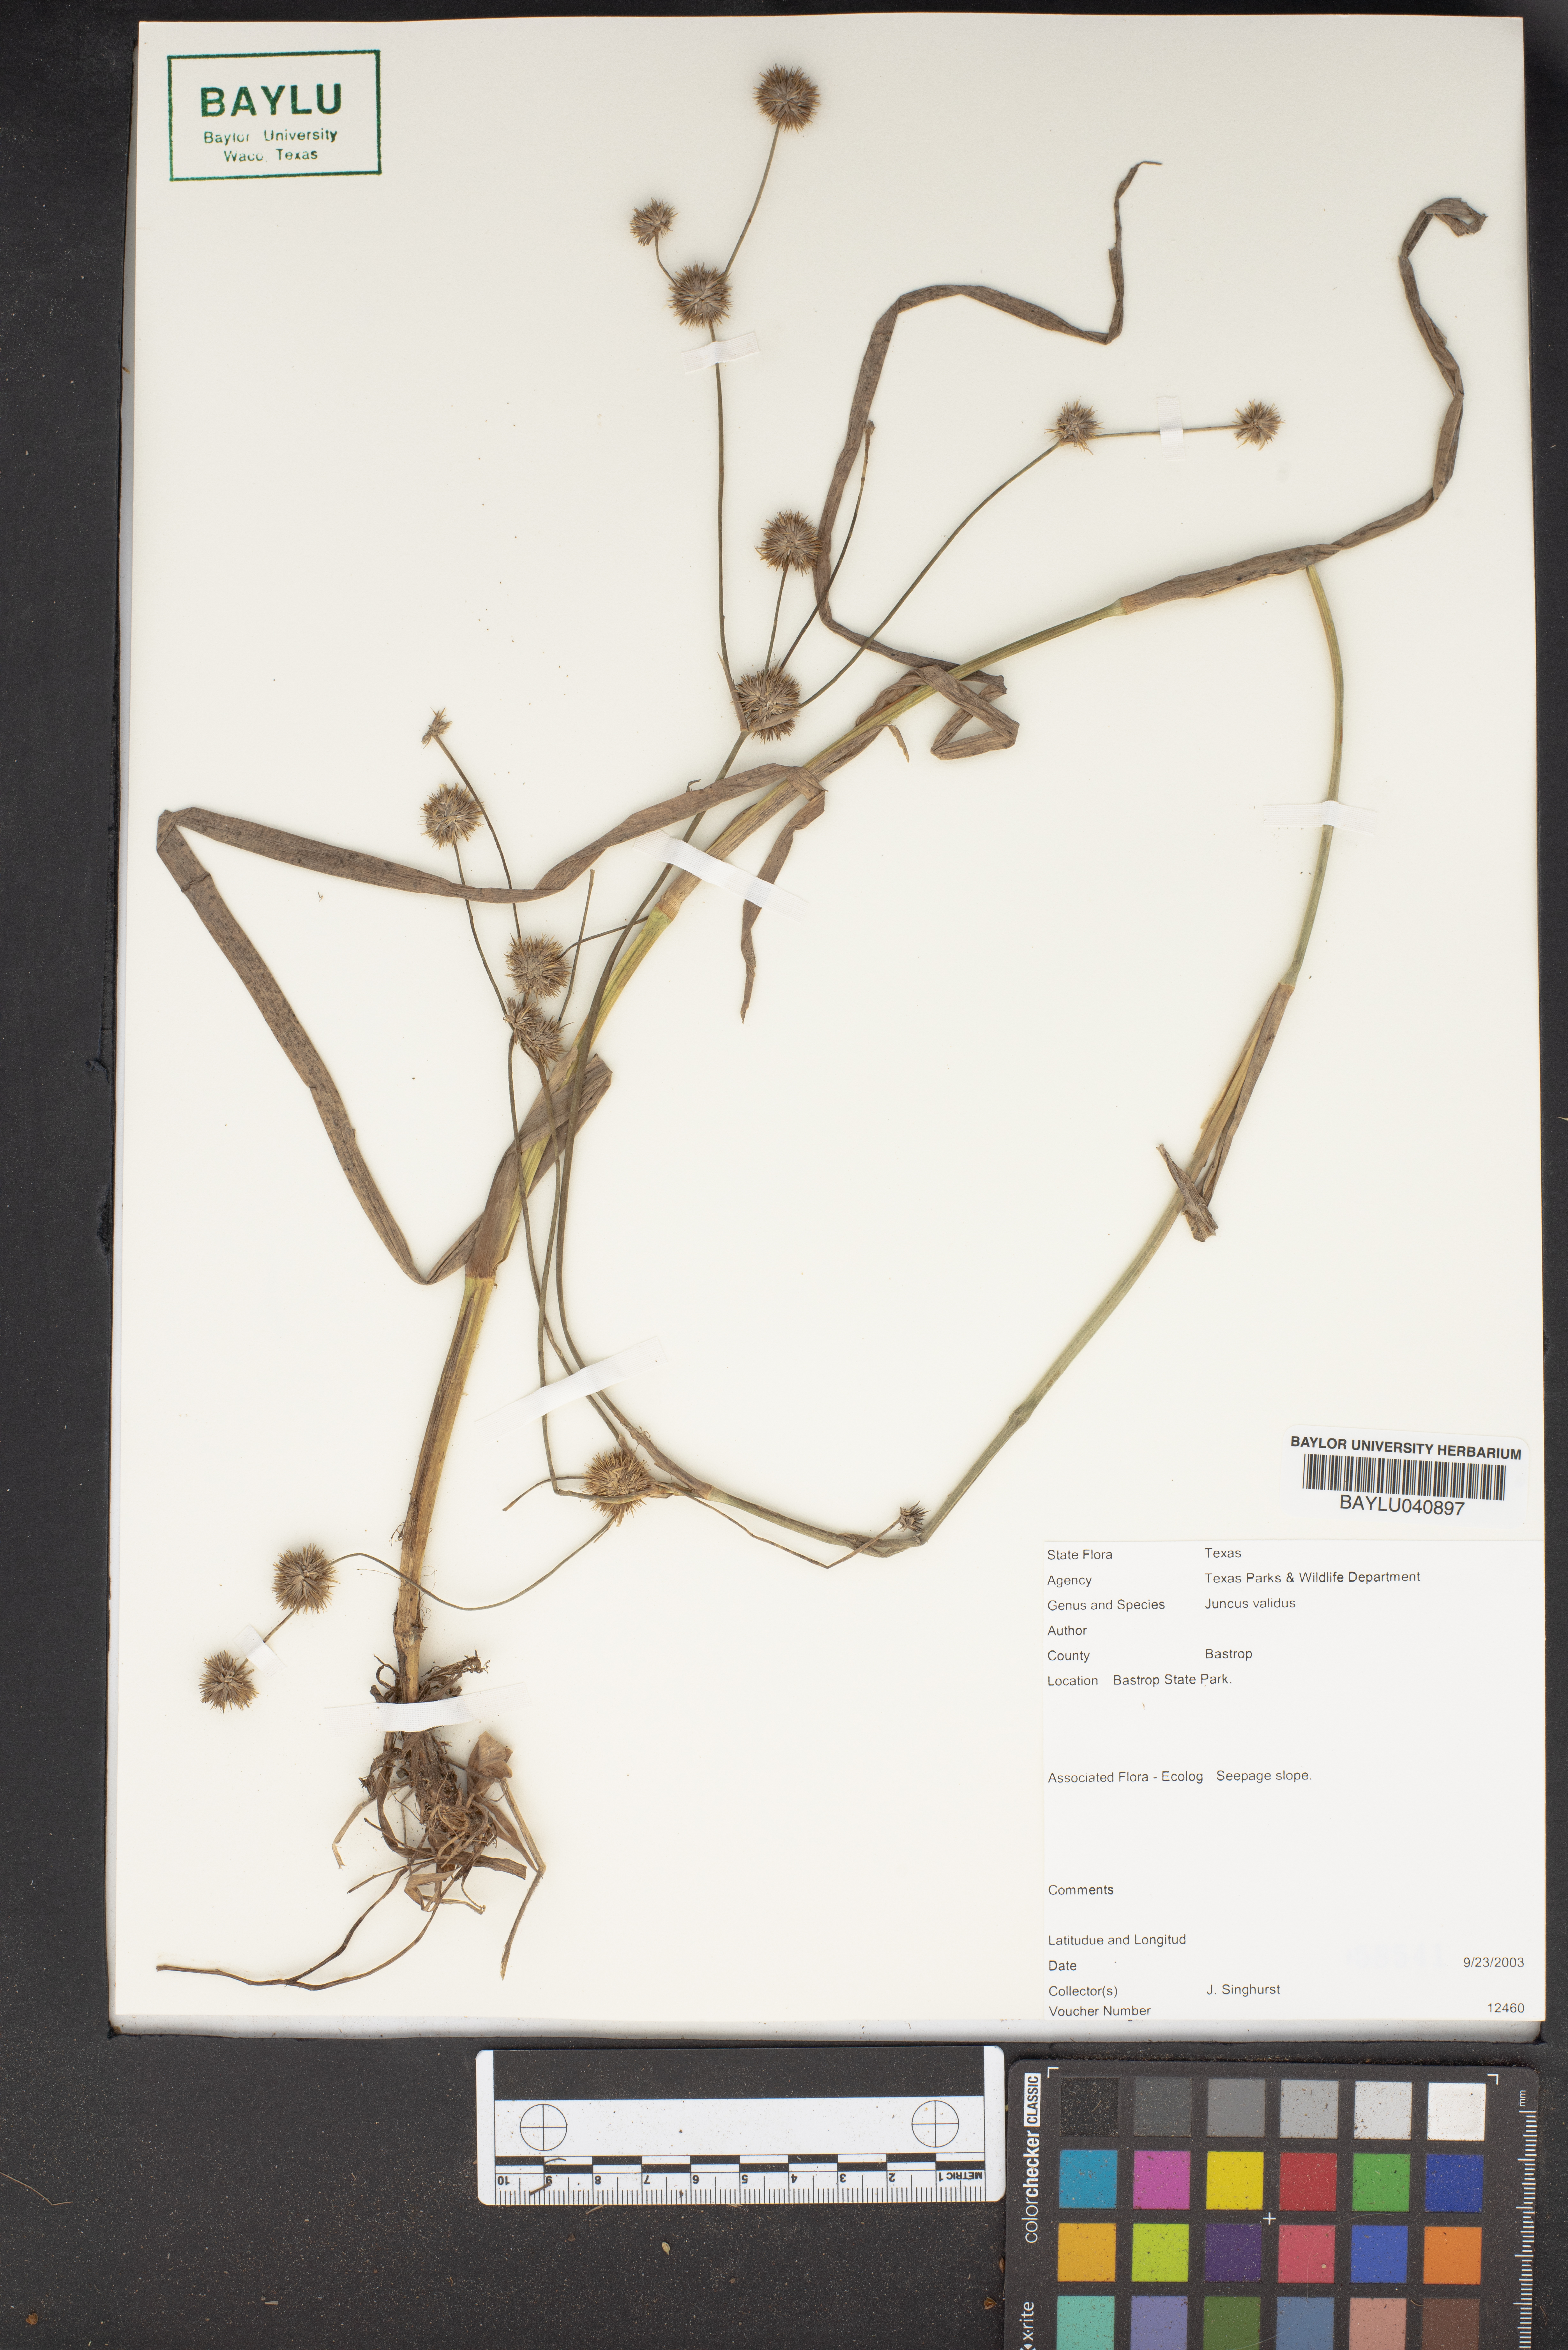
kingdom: Plantae
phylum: Tracheophyta
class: Liliopsida
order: Poales
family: Juncaceae
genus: Juncus
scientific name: Juncus validus
